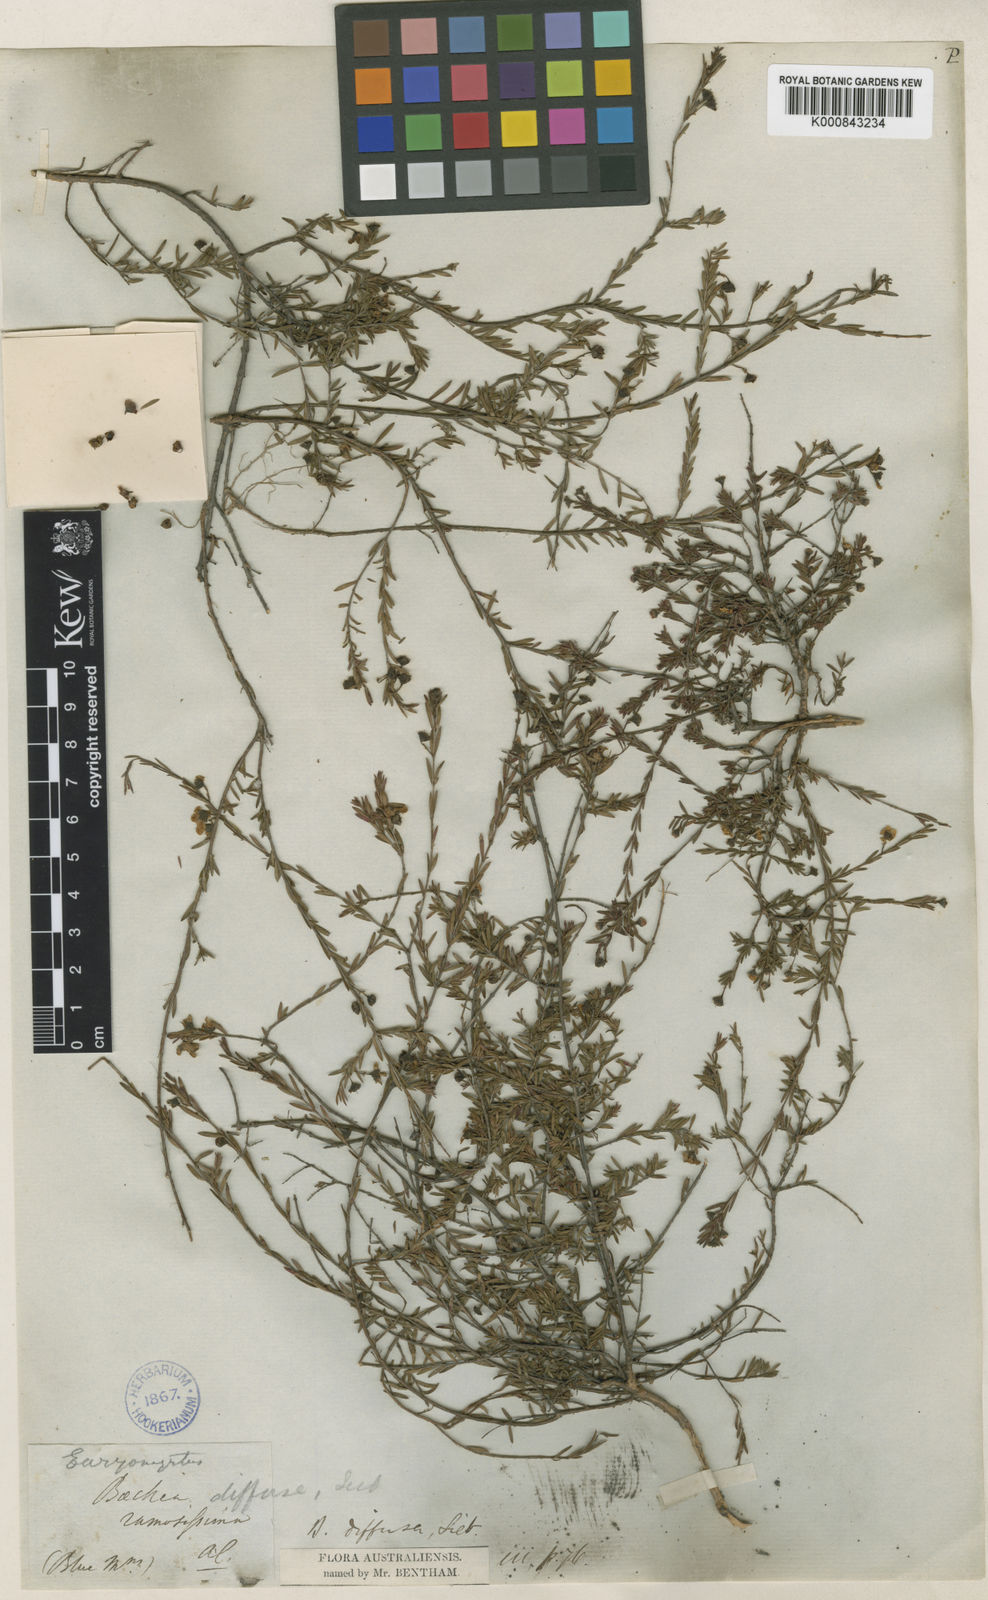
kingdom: Plantae
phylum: Tracheophyta
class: Magnoliopsida
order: Myrtales
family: Myrtaceae
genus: Euryomyrtus
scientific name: Euryomyrtus ramosissima
